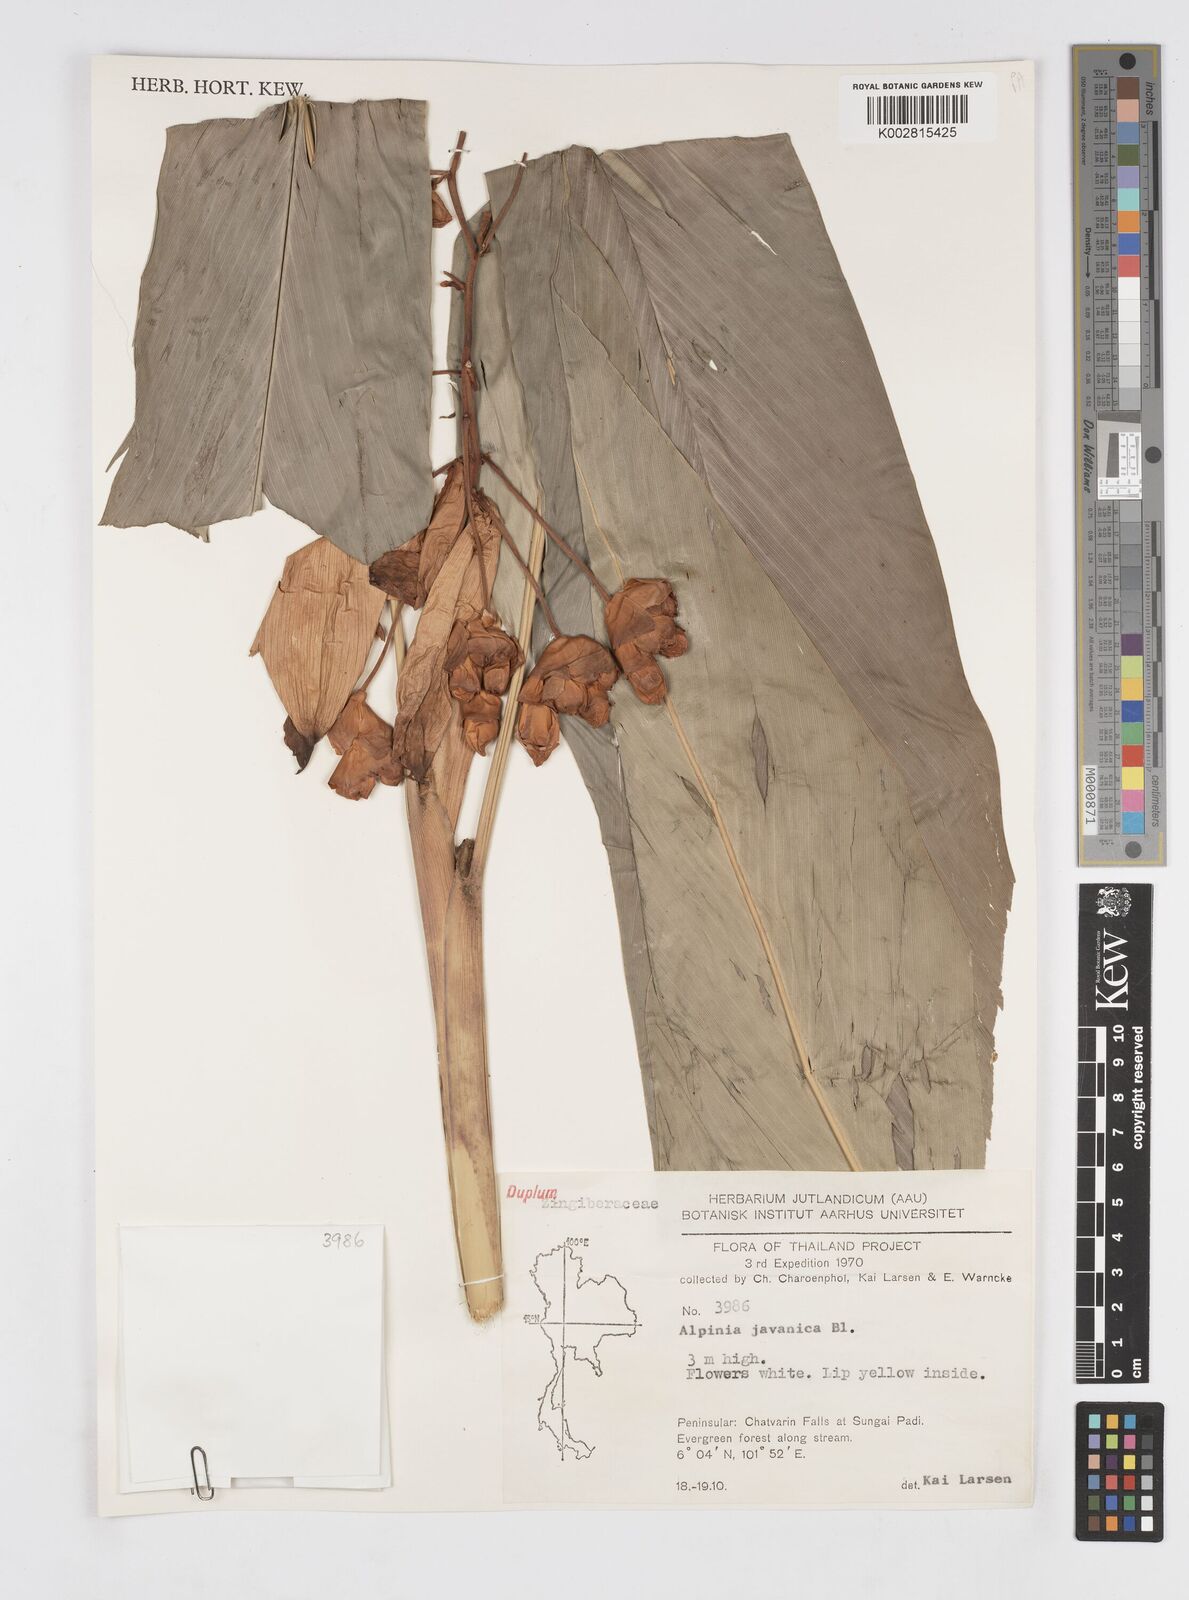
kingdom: Plantae
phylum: Tracheophyta
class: Liliopsida
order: Zingiberales
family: Zingiberaceae
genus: Alpinia
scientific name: Alpinia javanica
